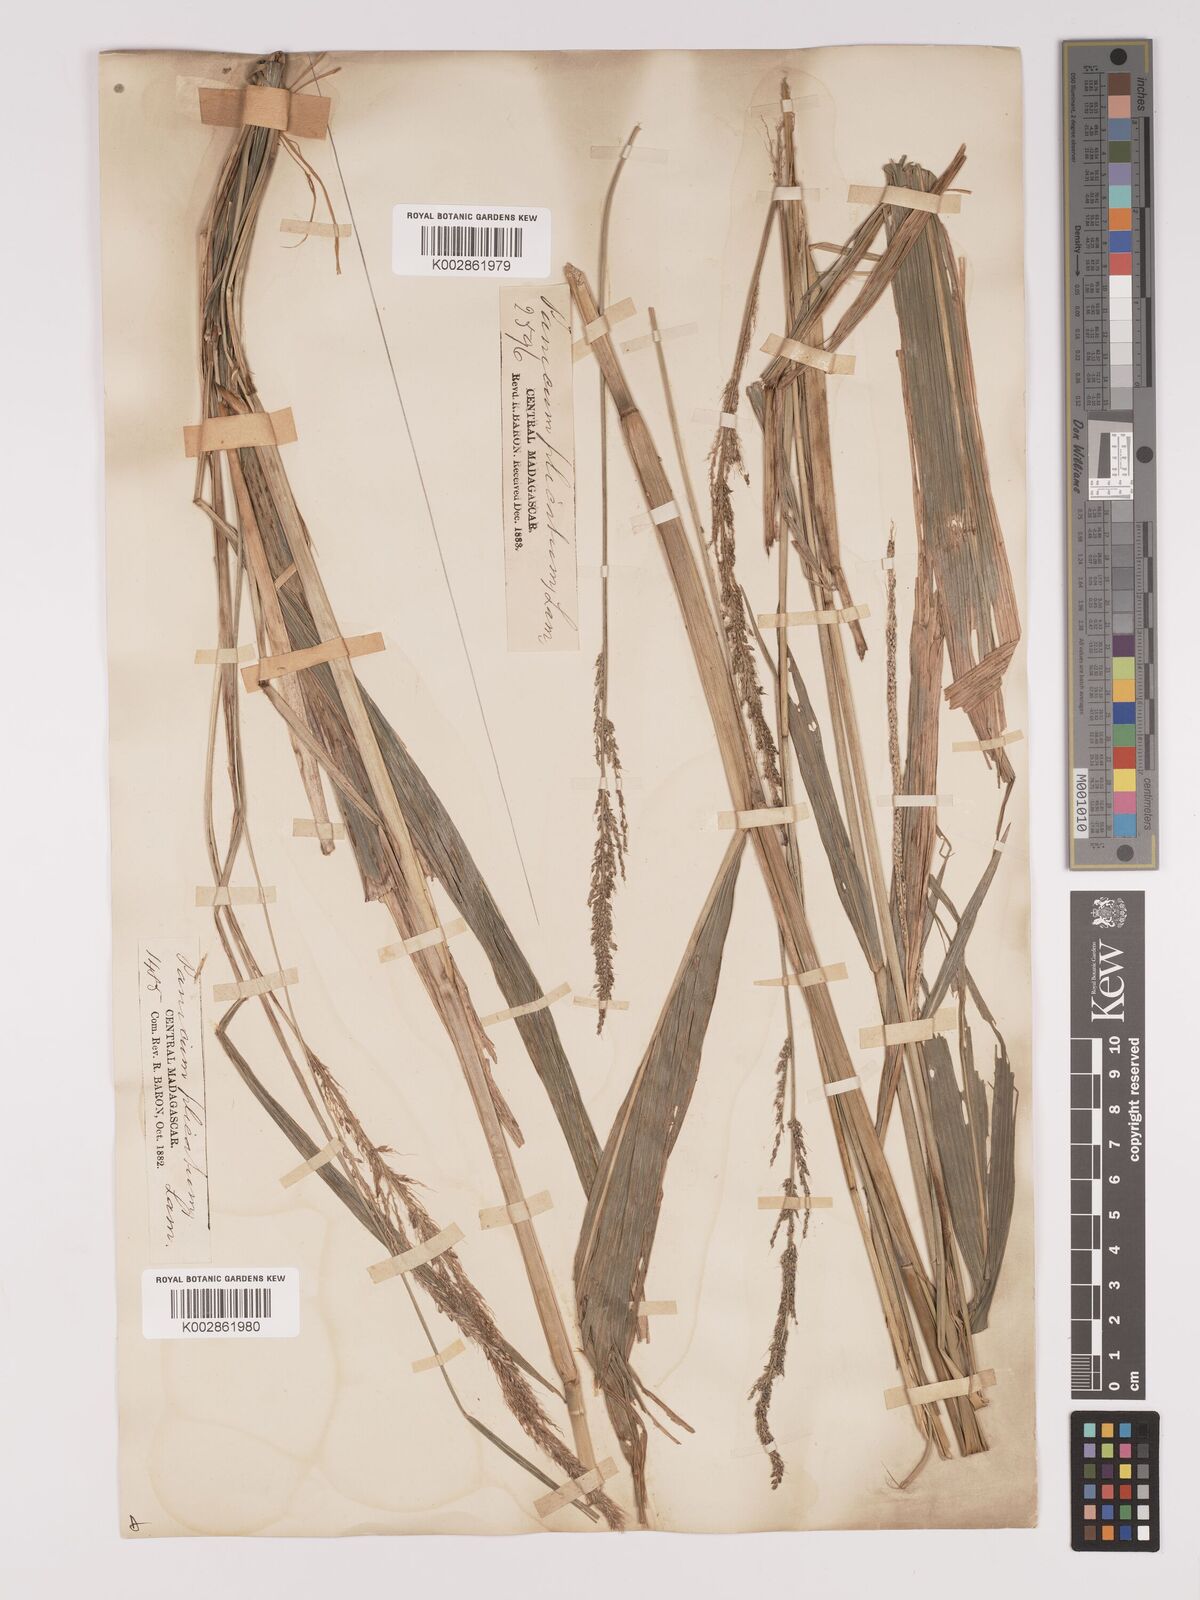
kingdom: Plantae
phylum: Tracheophyta
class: Liliopsida
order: Poales
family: Poaceae
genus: Setaria
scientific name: Setaria megaphylla
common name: Bigleaf bristlegrass
